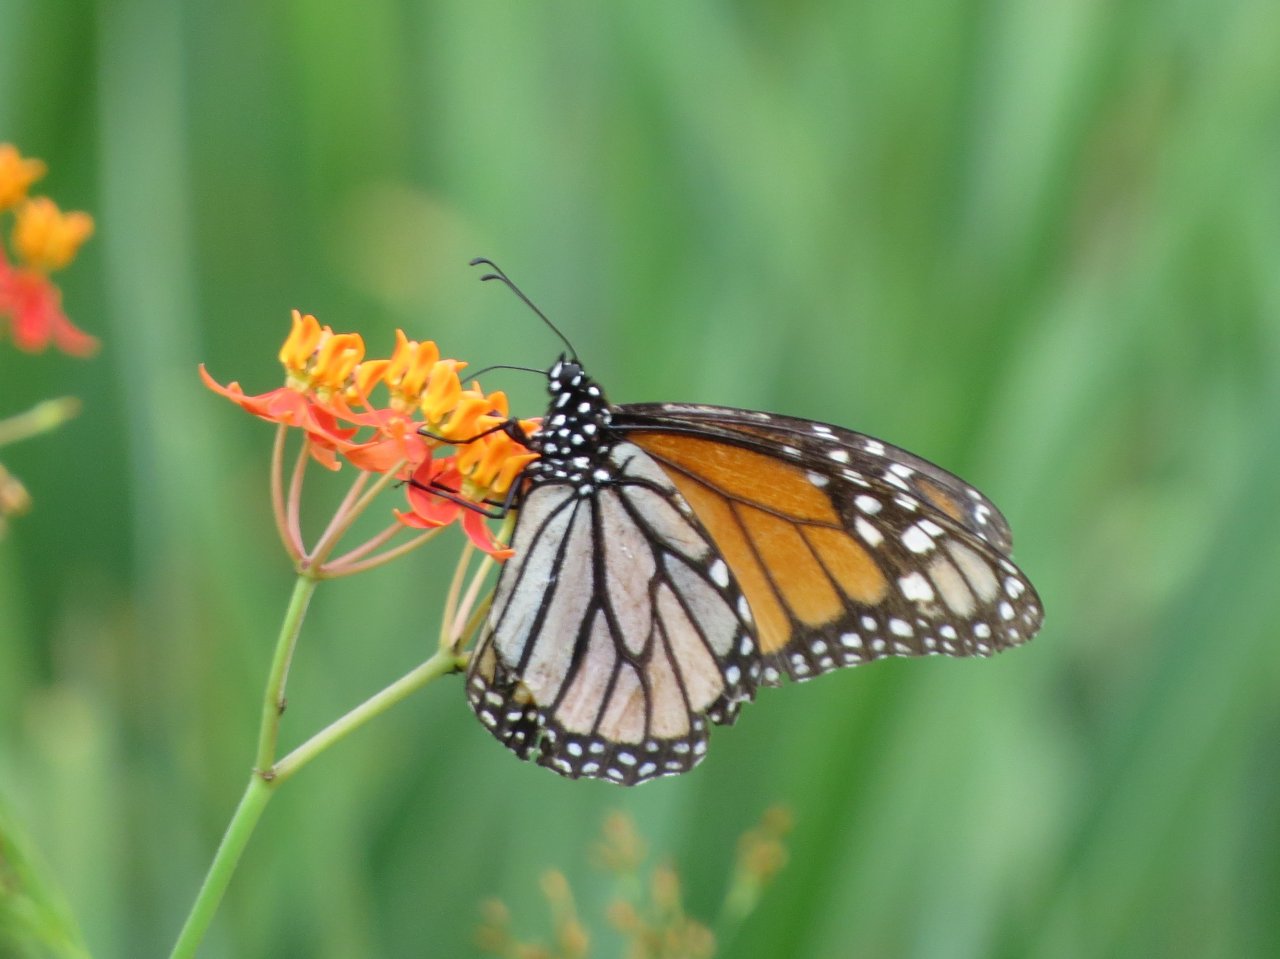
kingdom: Animalia
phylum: Arthropoda
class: Insecta
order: Lepidoptera
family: Nymphalidae
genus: Danaus
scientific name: Danaus plexippus
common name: Monarch
